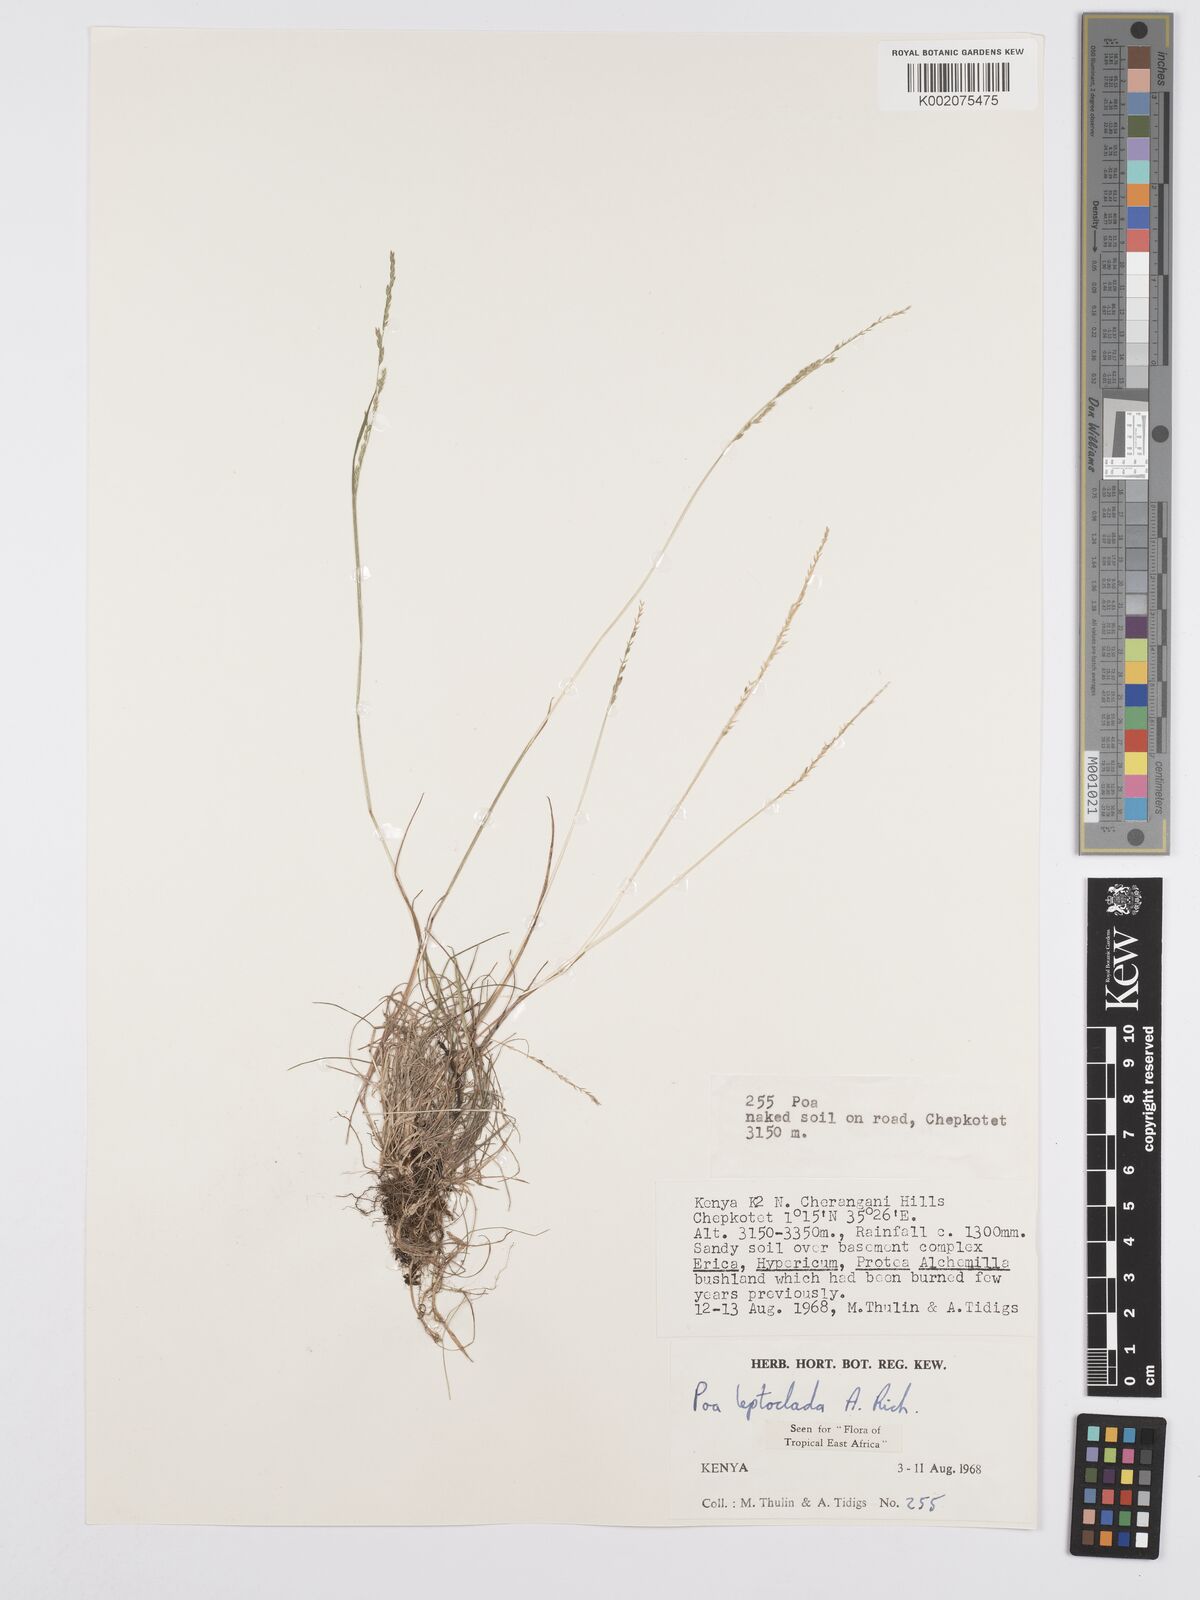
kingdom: Plantae
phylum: Tracheophyta
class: Liliopsida
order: Poales
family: Poaceae
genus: Poa
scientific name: Poa leptoclada
